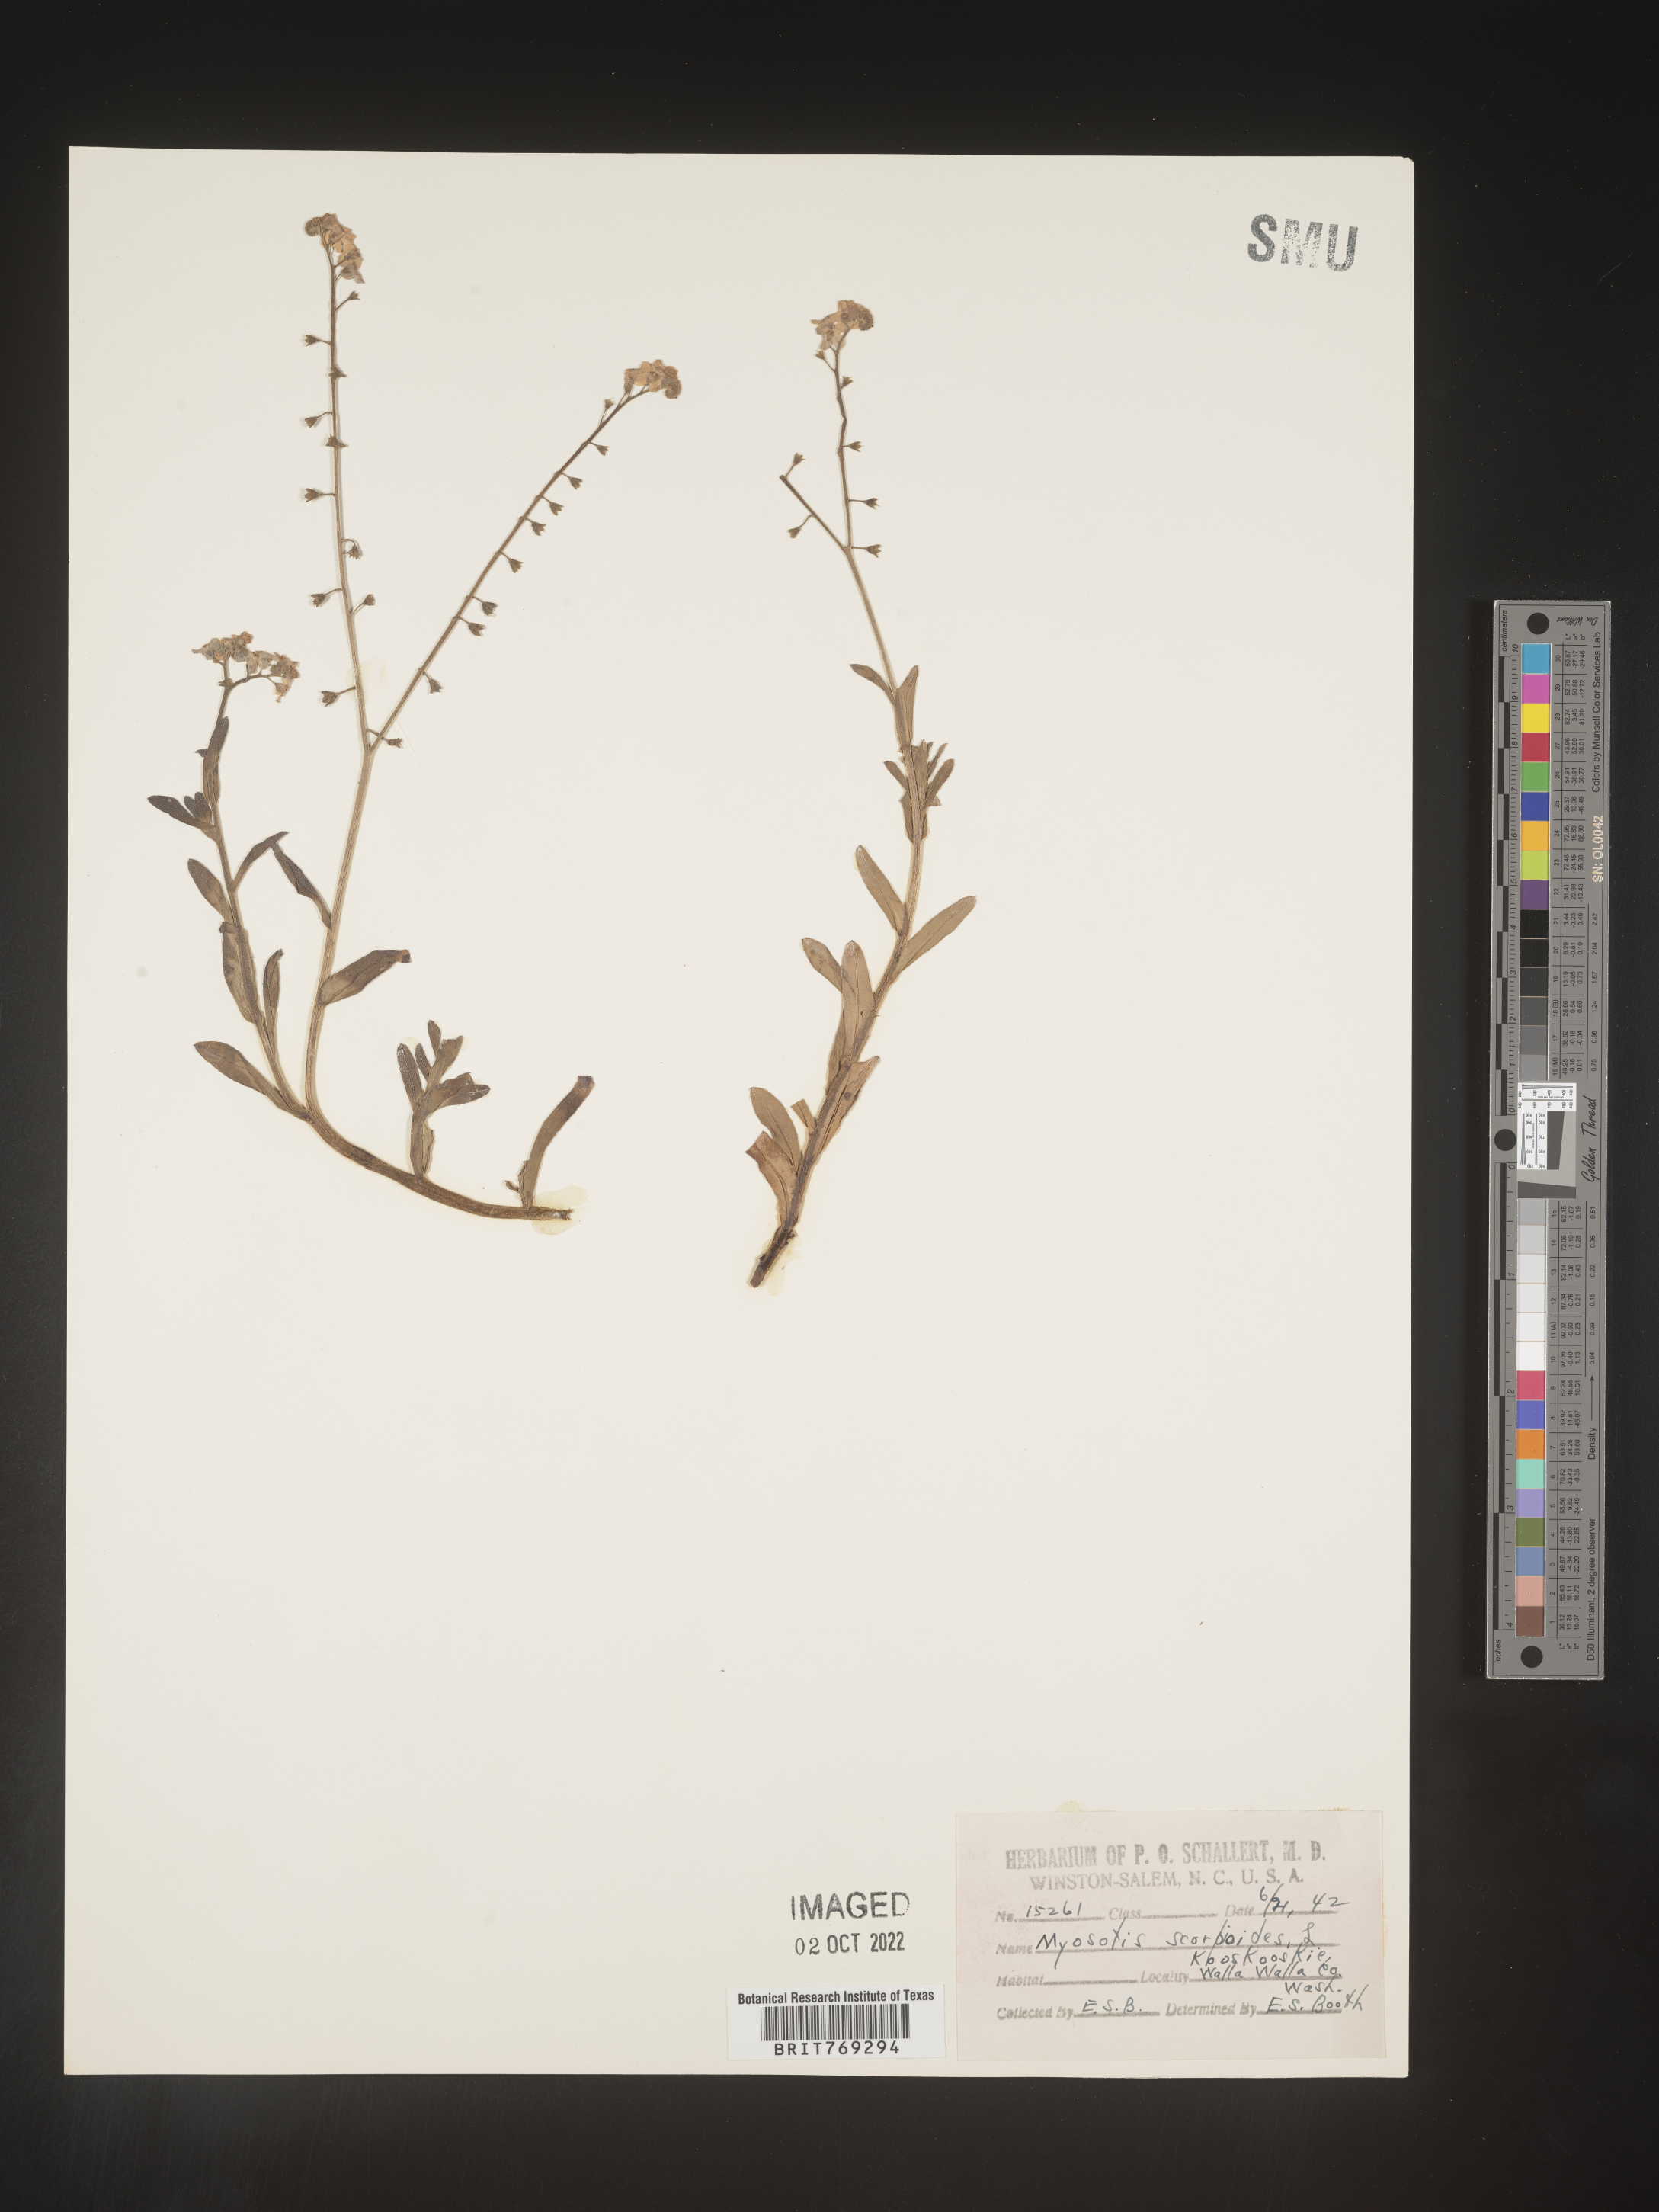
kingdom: Plantae
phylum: Tracheophyta
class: Magnoliopsida
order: Boraginales
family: Boraginaceae
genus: Myosotis
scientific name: Myosotis scorpioides
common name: Water forget-me-not
